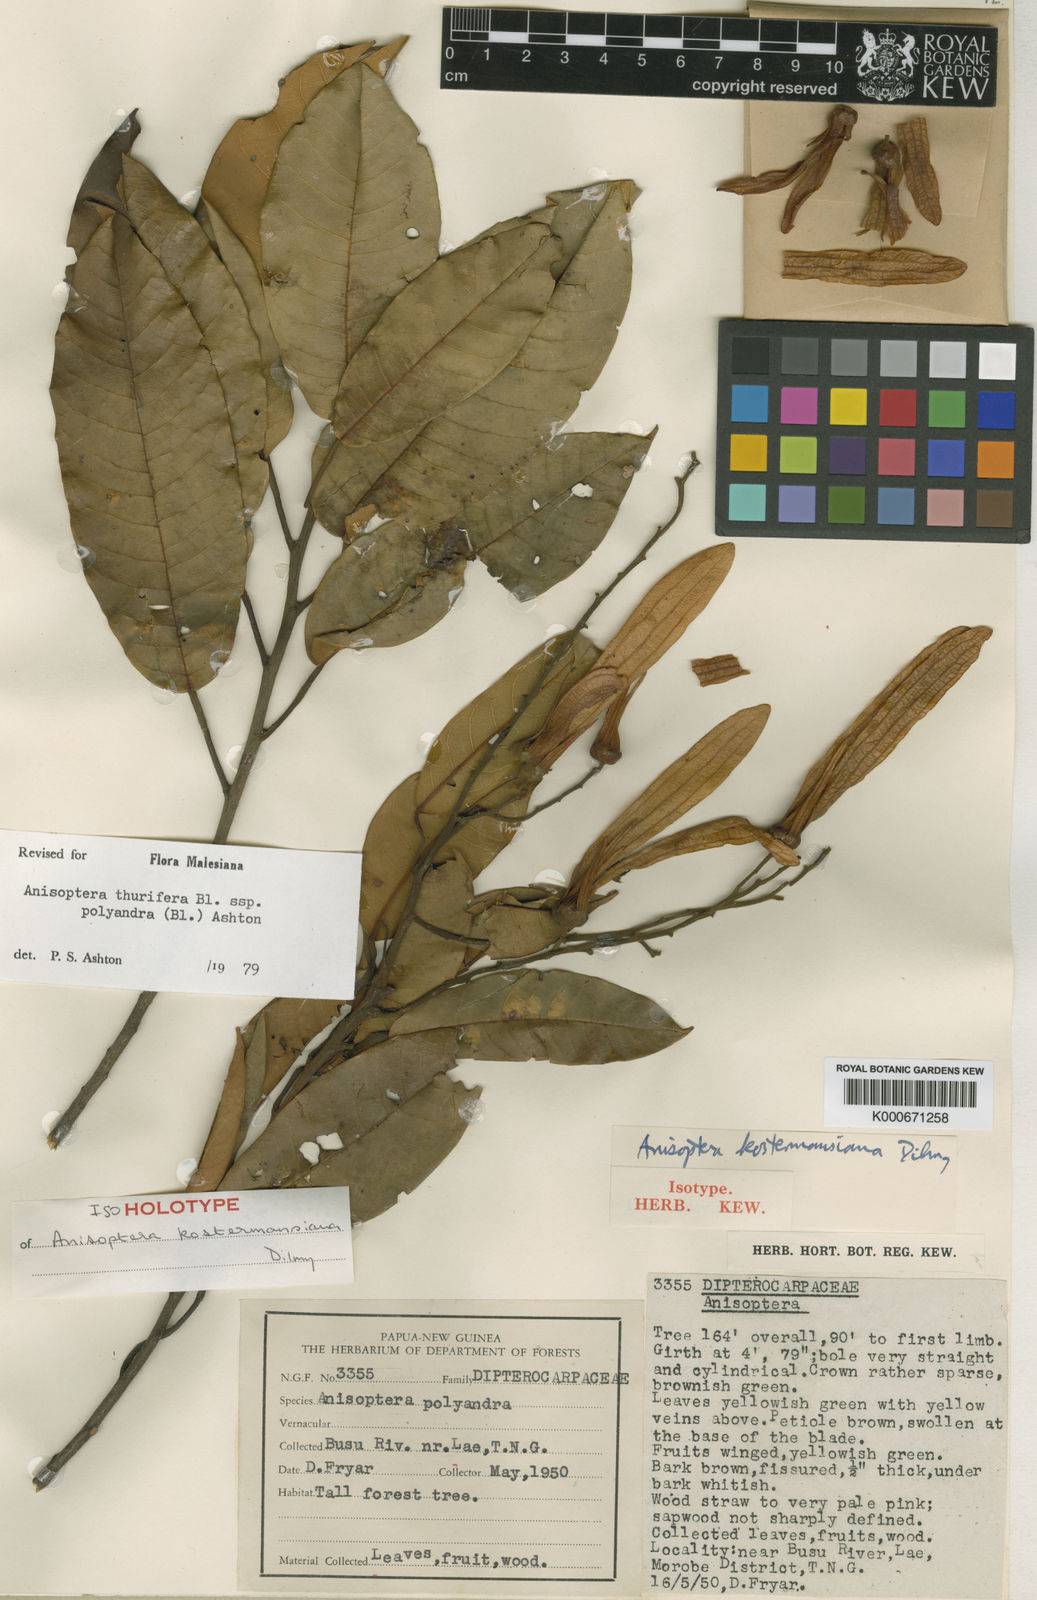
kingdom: Plantae
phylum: Tracheophyta
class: Magnoliopsida
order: Malvales
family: Dipterocarpaceae
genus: Anisoptera
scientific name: Anisoptera thurifera
